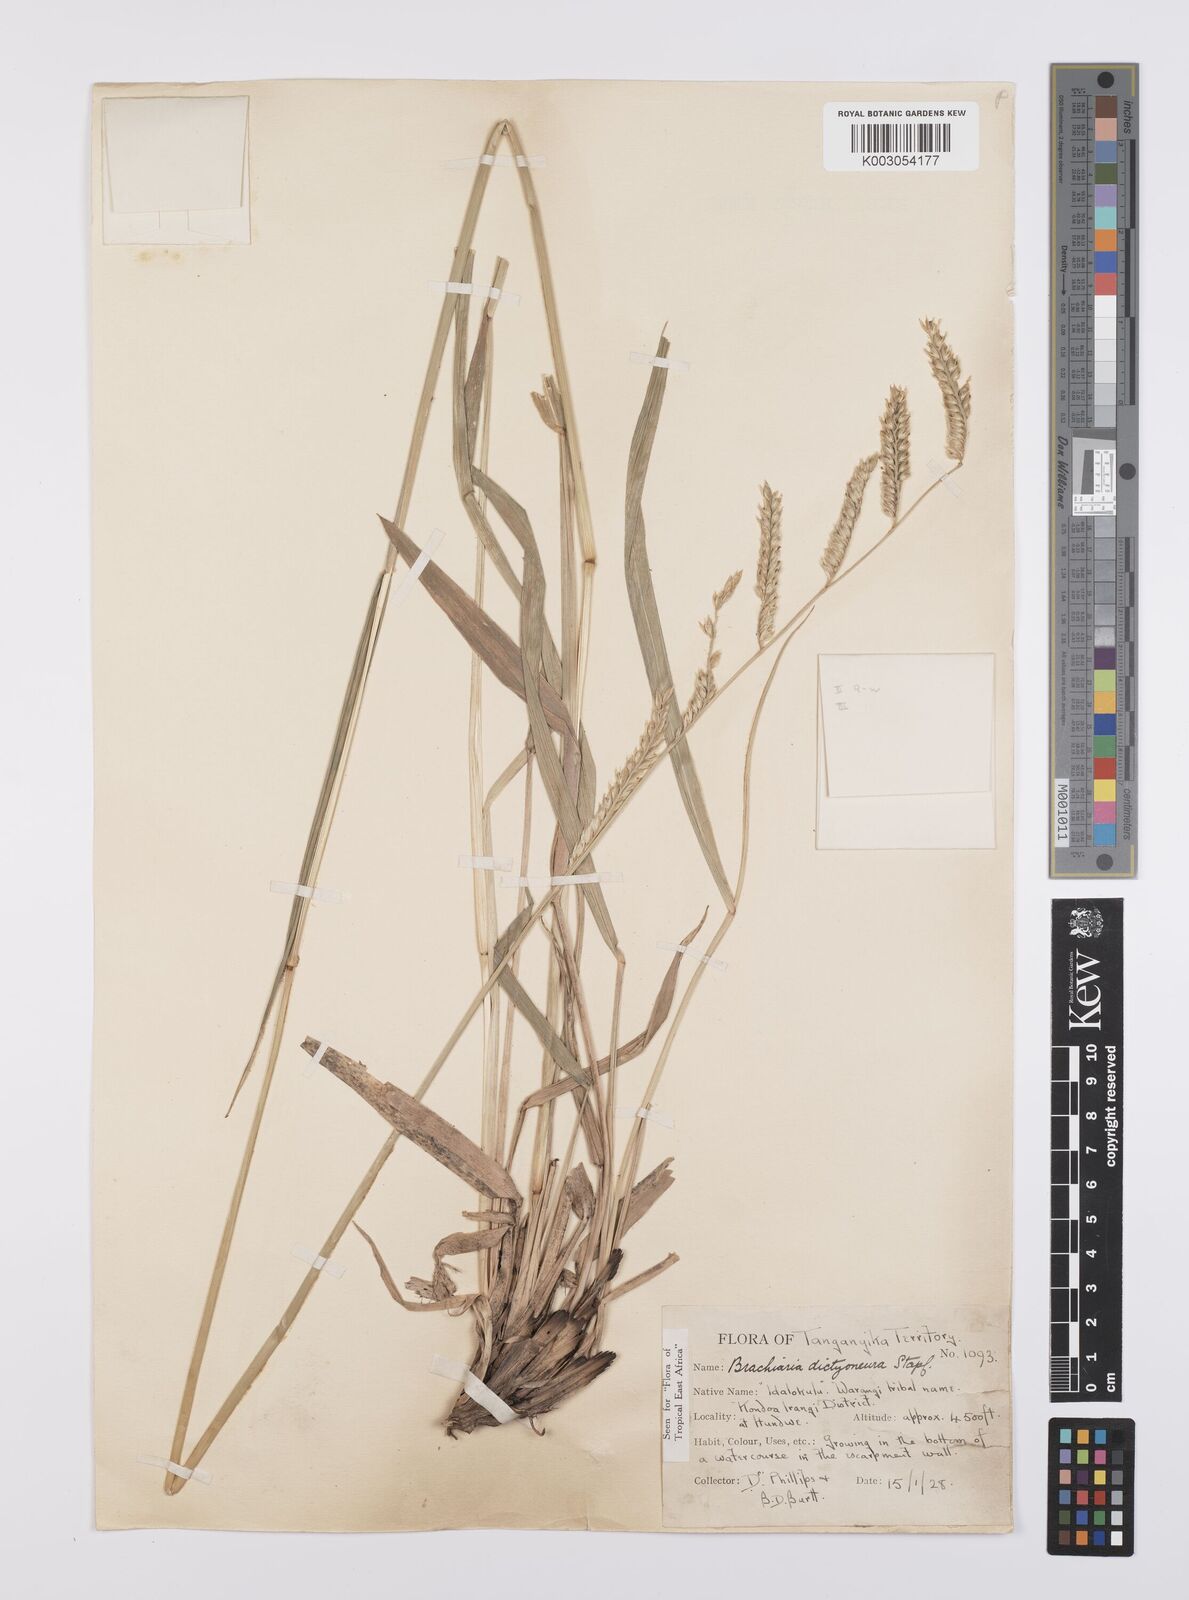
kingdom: Plantae
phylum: Tracheophyta
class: Liliopsida
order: Poales
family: Poaceae
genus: Urochloa
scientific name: Urochloa dictyoneura
